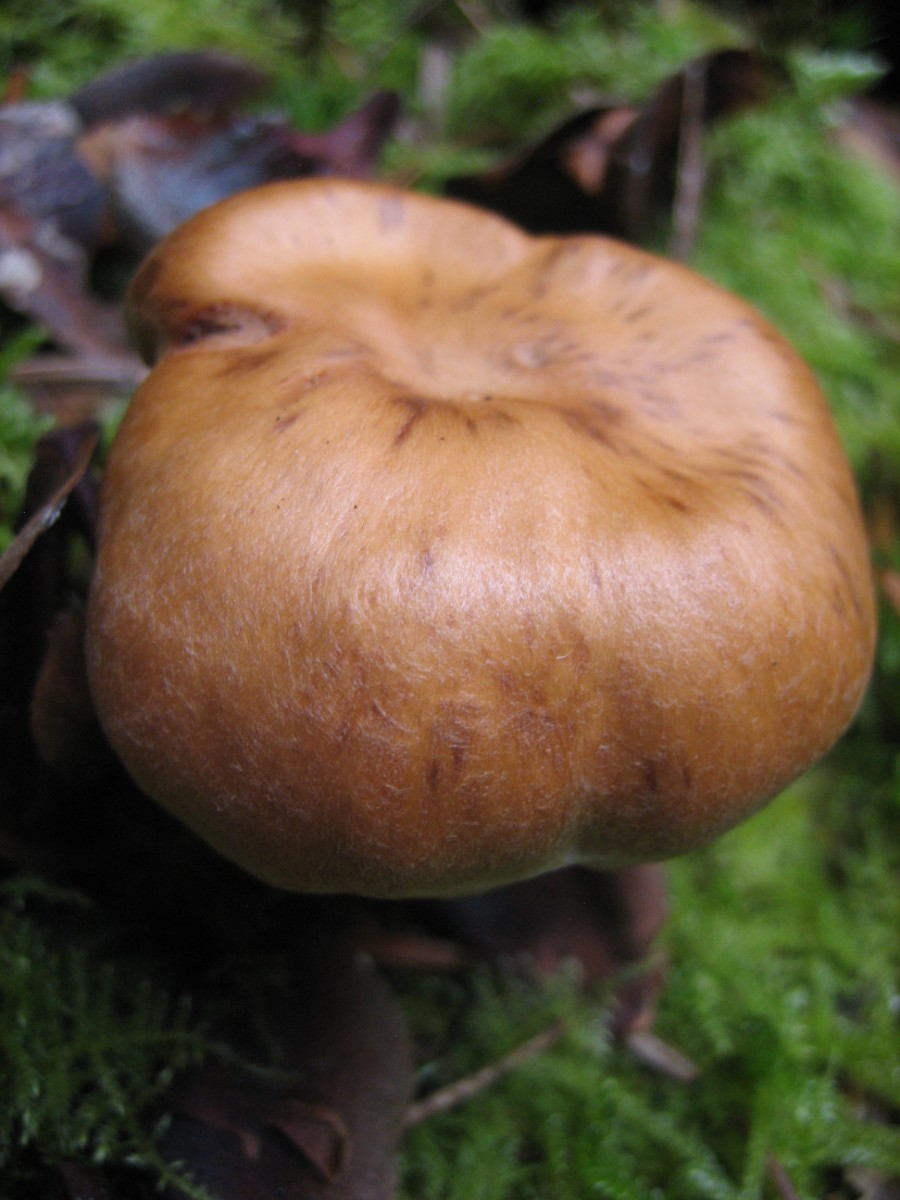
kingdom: Fungi
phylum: Basidiomycota
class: Agaricomycetes
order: Agaricales
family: Cortinariaceae
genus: Cortinarius
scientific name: Cortinarius
